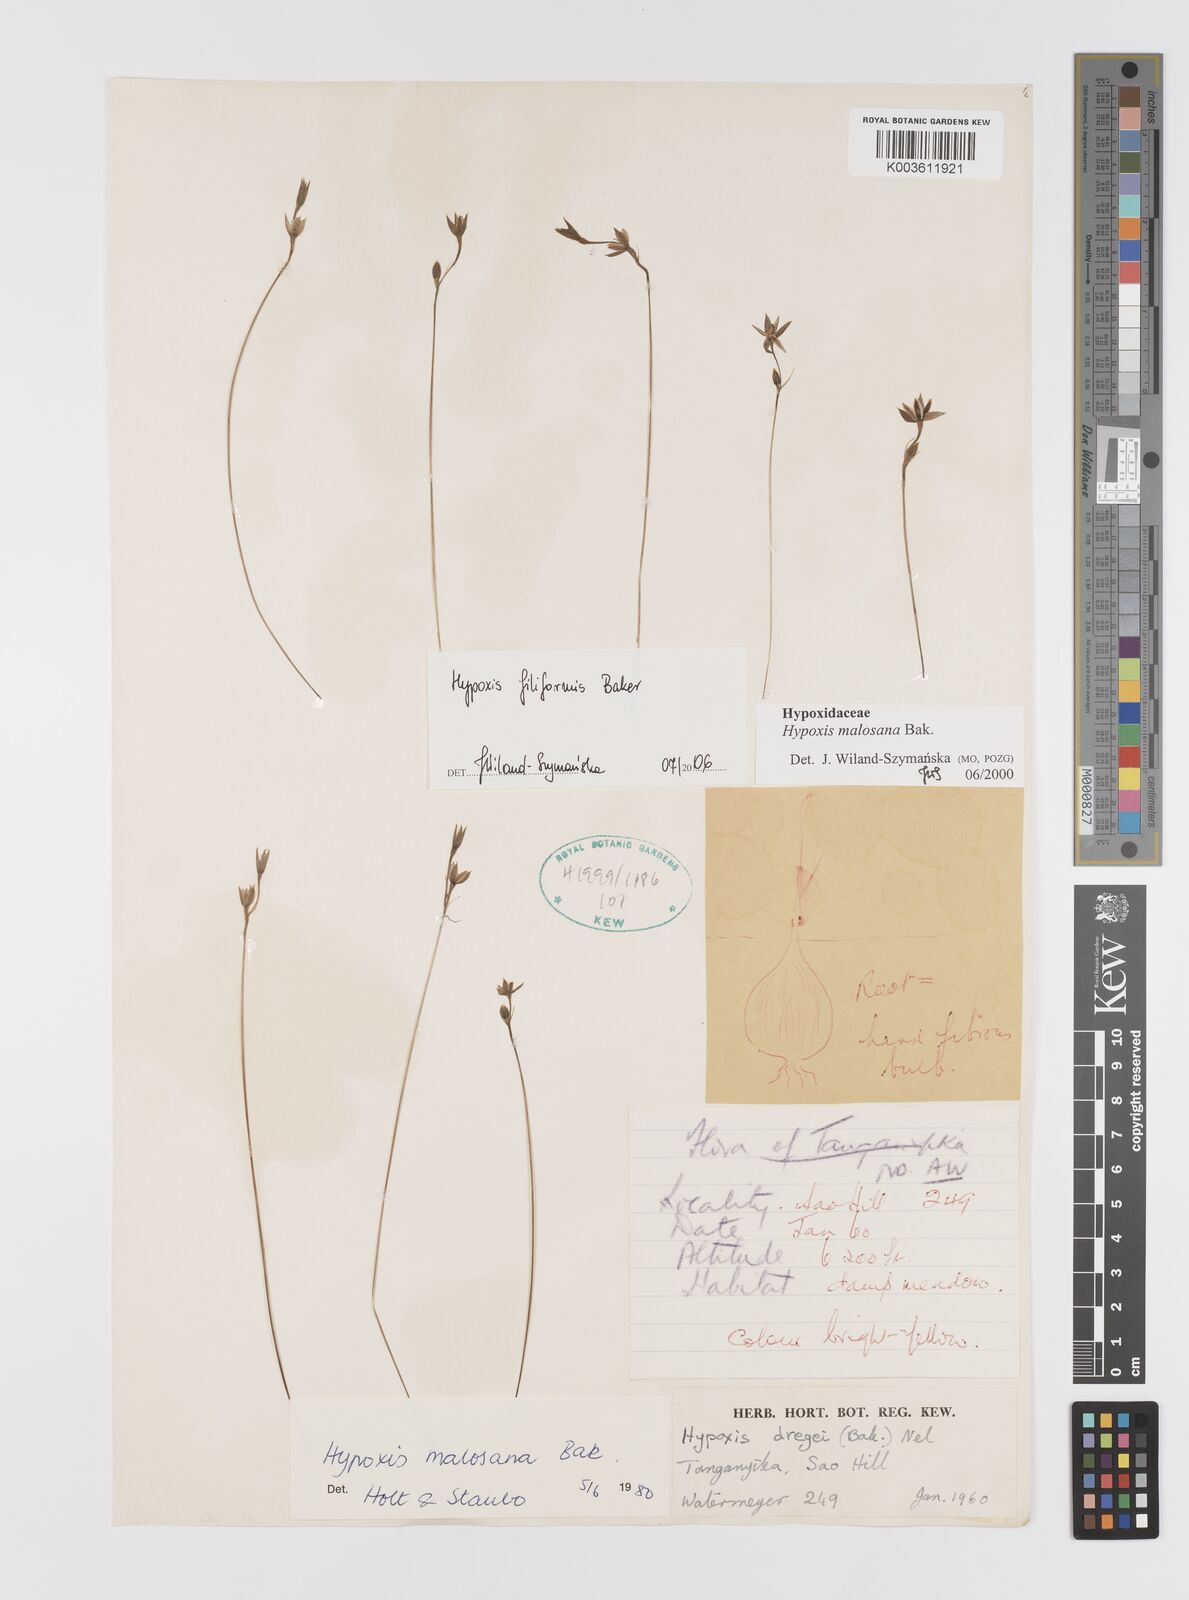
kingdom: Plantae
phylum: Tracheophyta
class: Liliopsida
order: Asparagales
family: Hypoxidaceae
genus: Hypoxis
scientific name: Hypoxis filiformis
